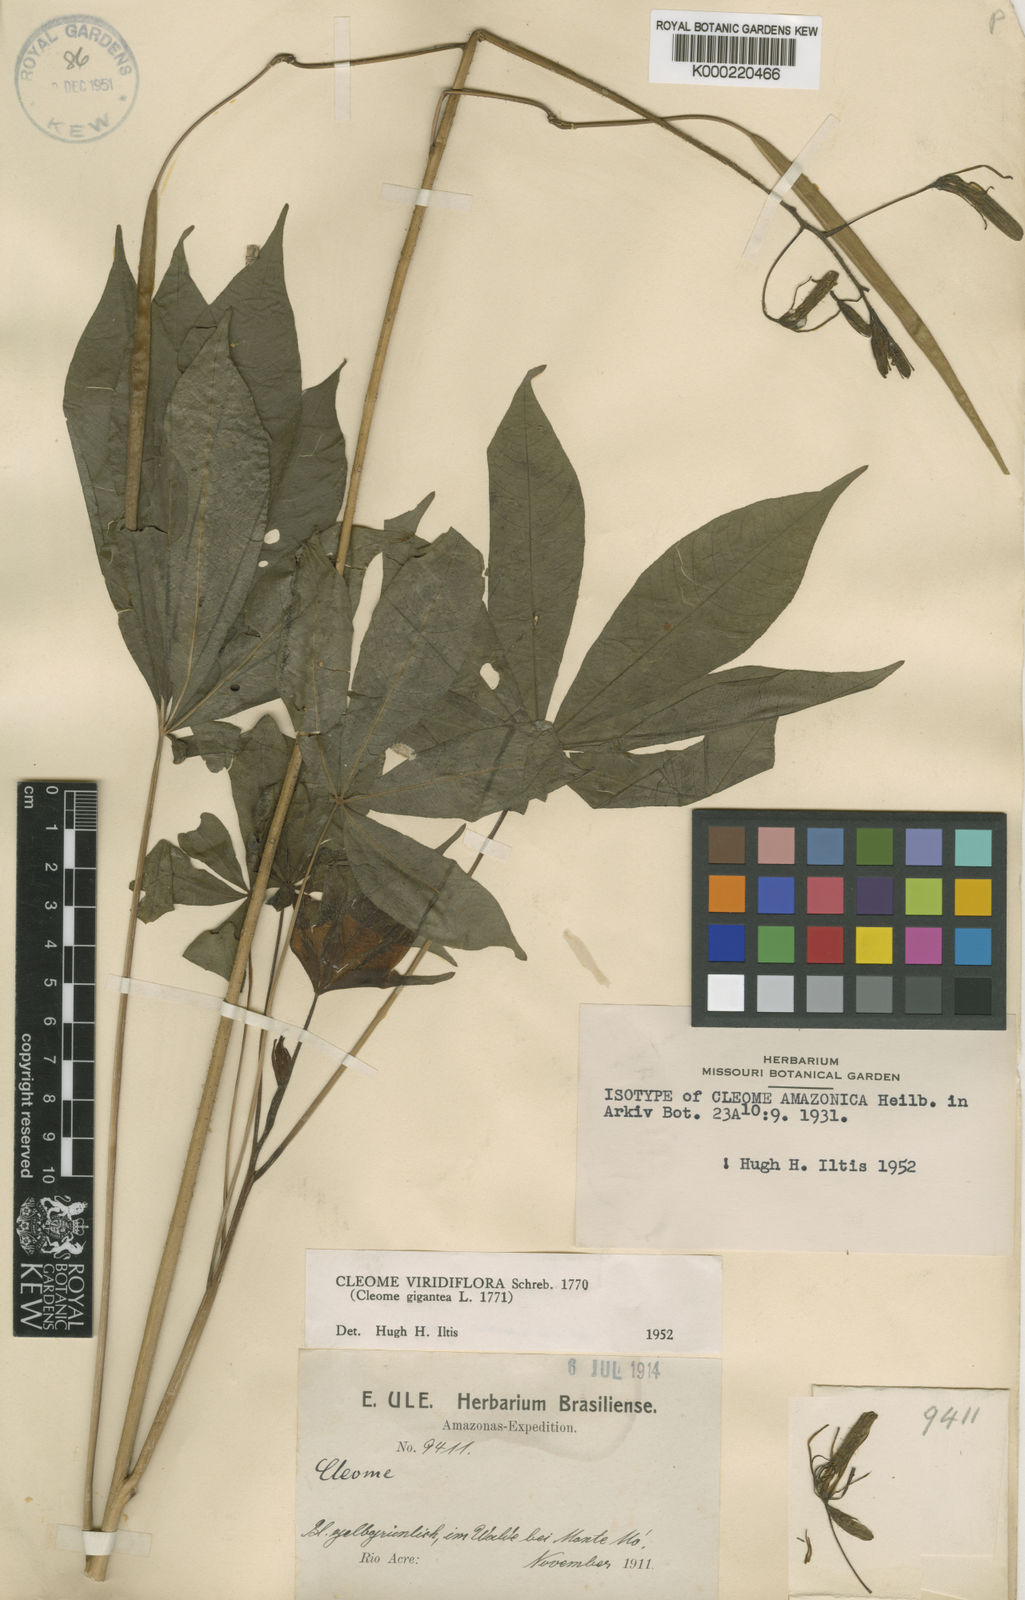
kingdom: Plantae
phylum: Tracheophyta
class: Magnoliopsida
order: Brassicales
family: Cleomaceae
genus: Melidiscus
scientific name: Melidiscus gigantea
